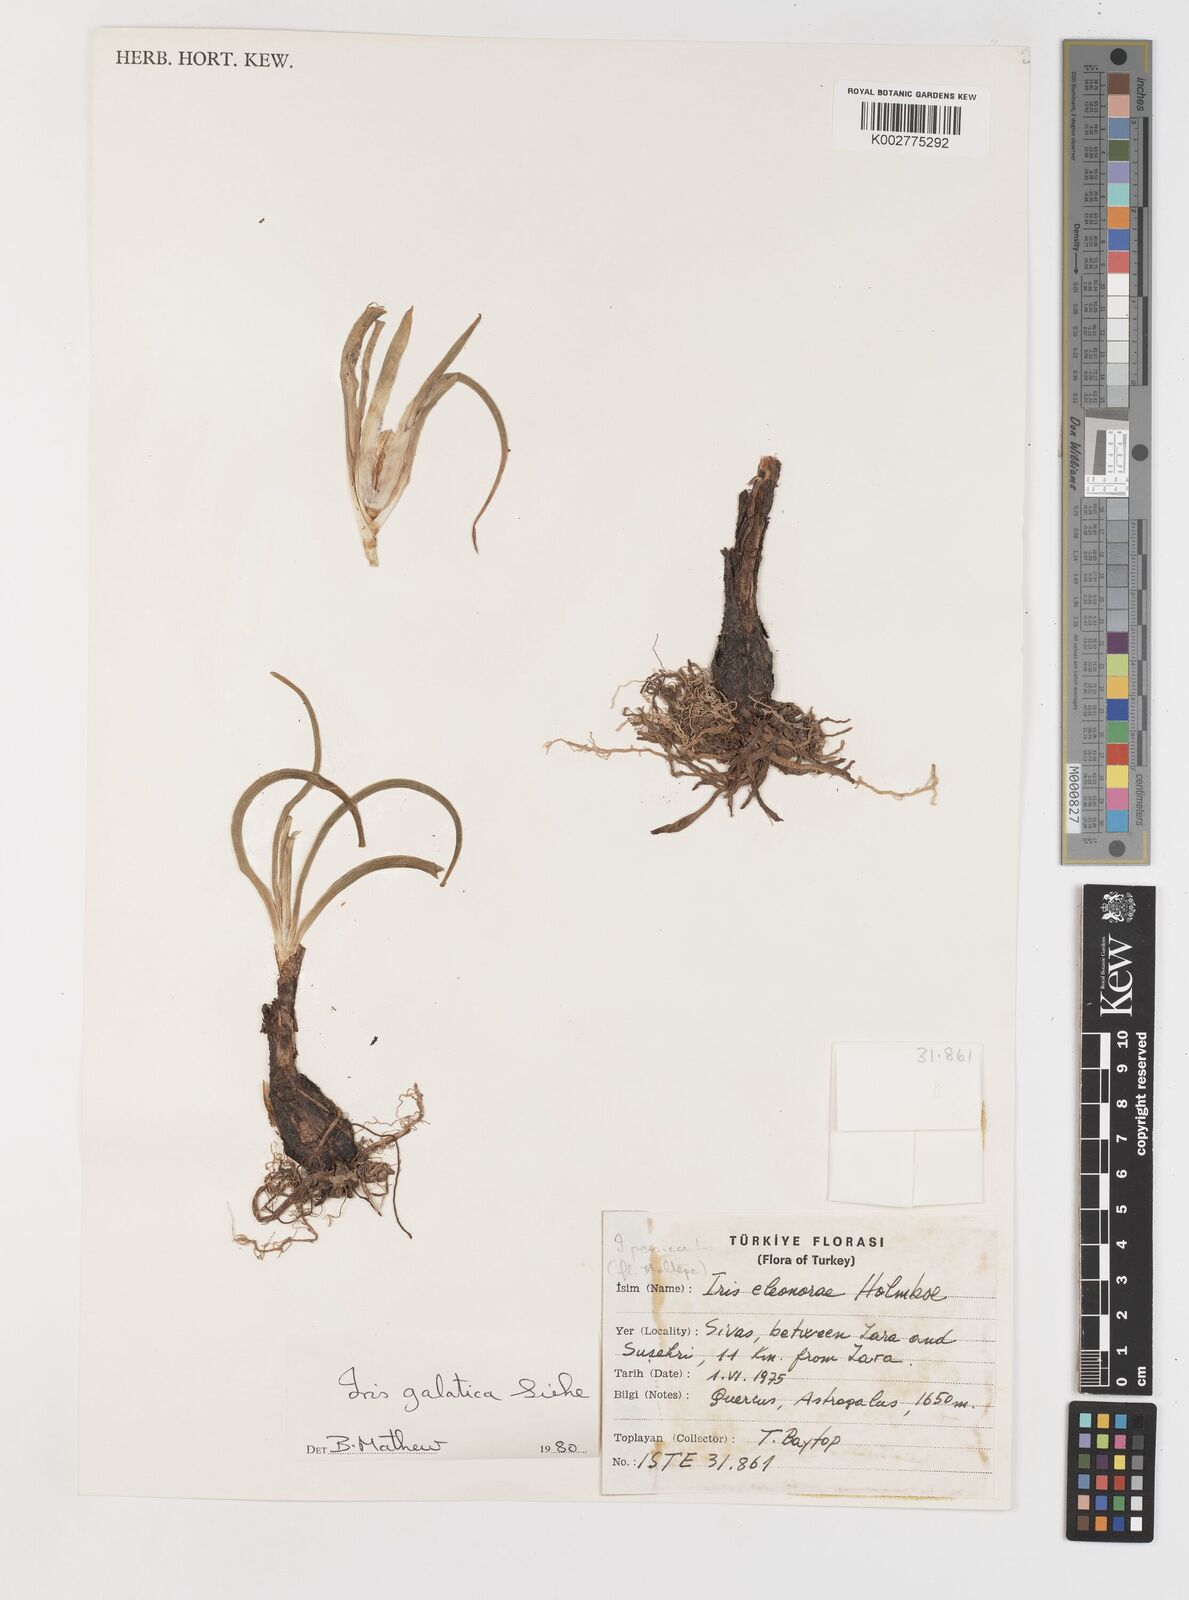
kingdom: Plantae
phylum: Tracheophyta
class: Liliopsida
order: Asparagales
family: Iridaceae
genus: Iris
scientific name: Iris galatica
